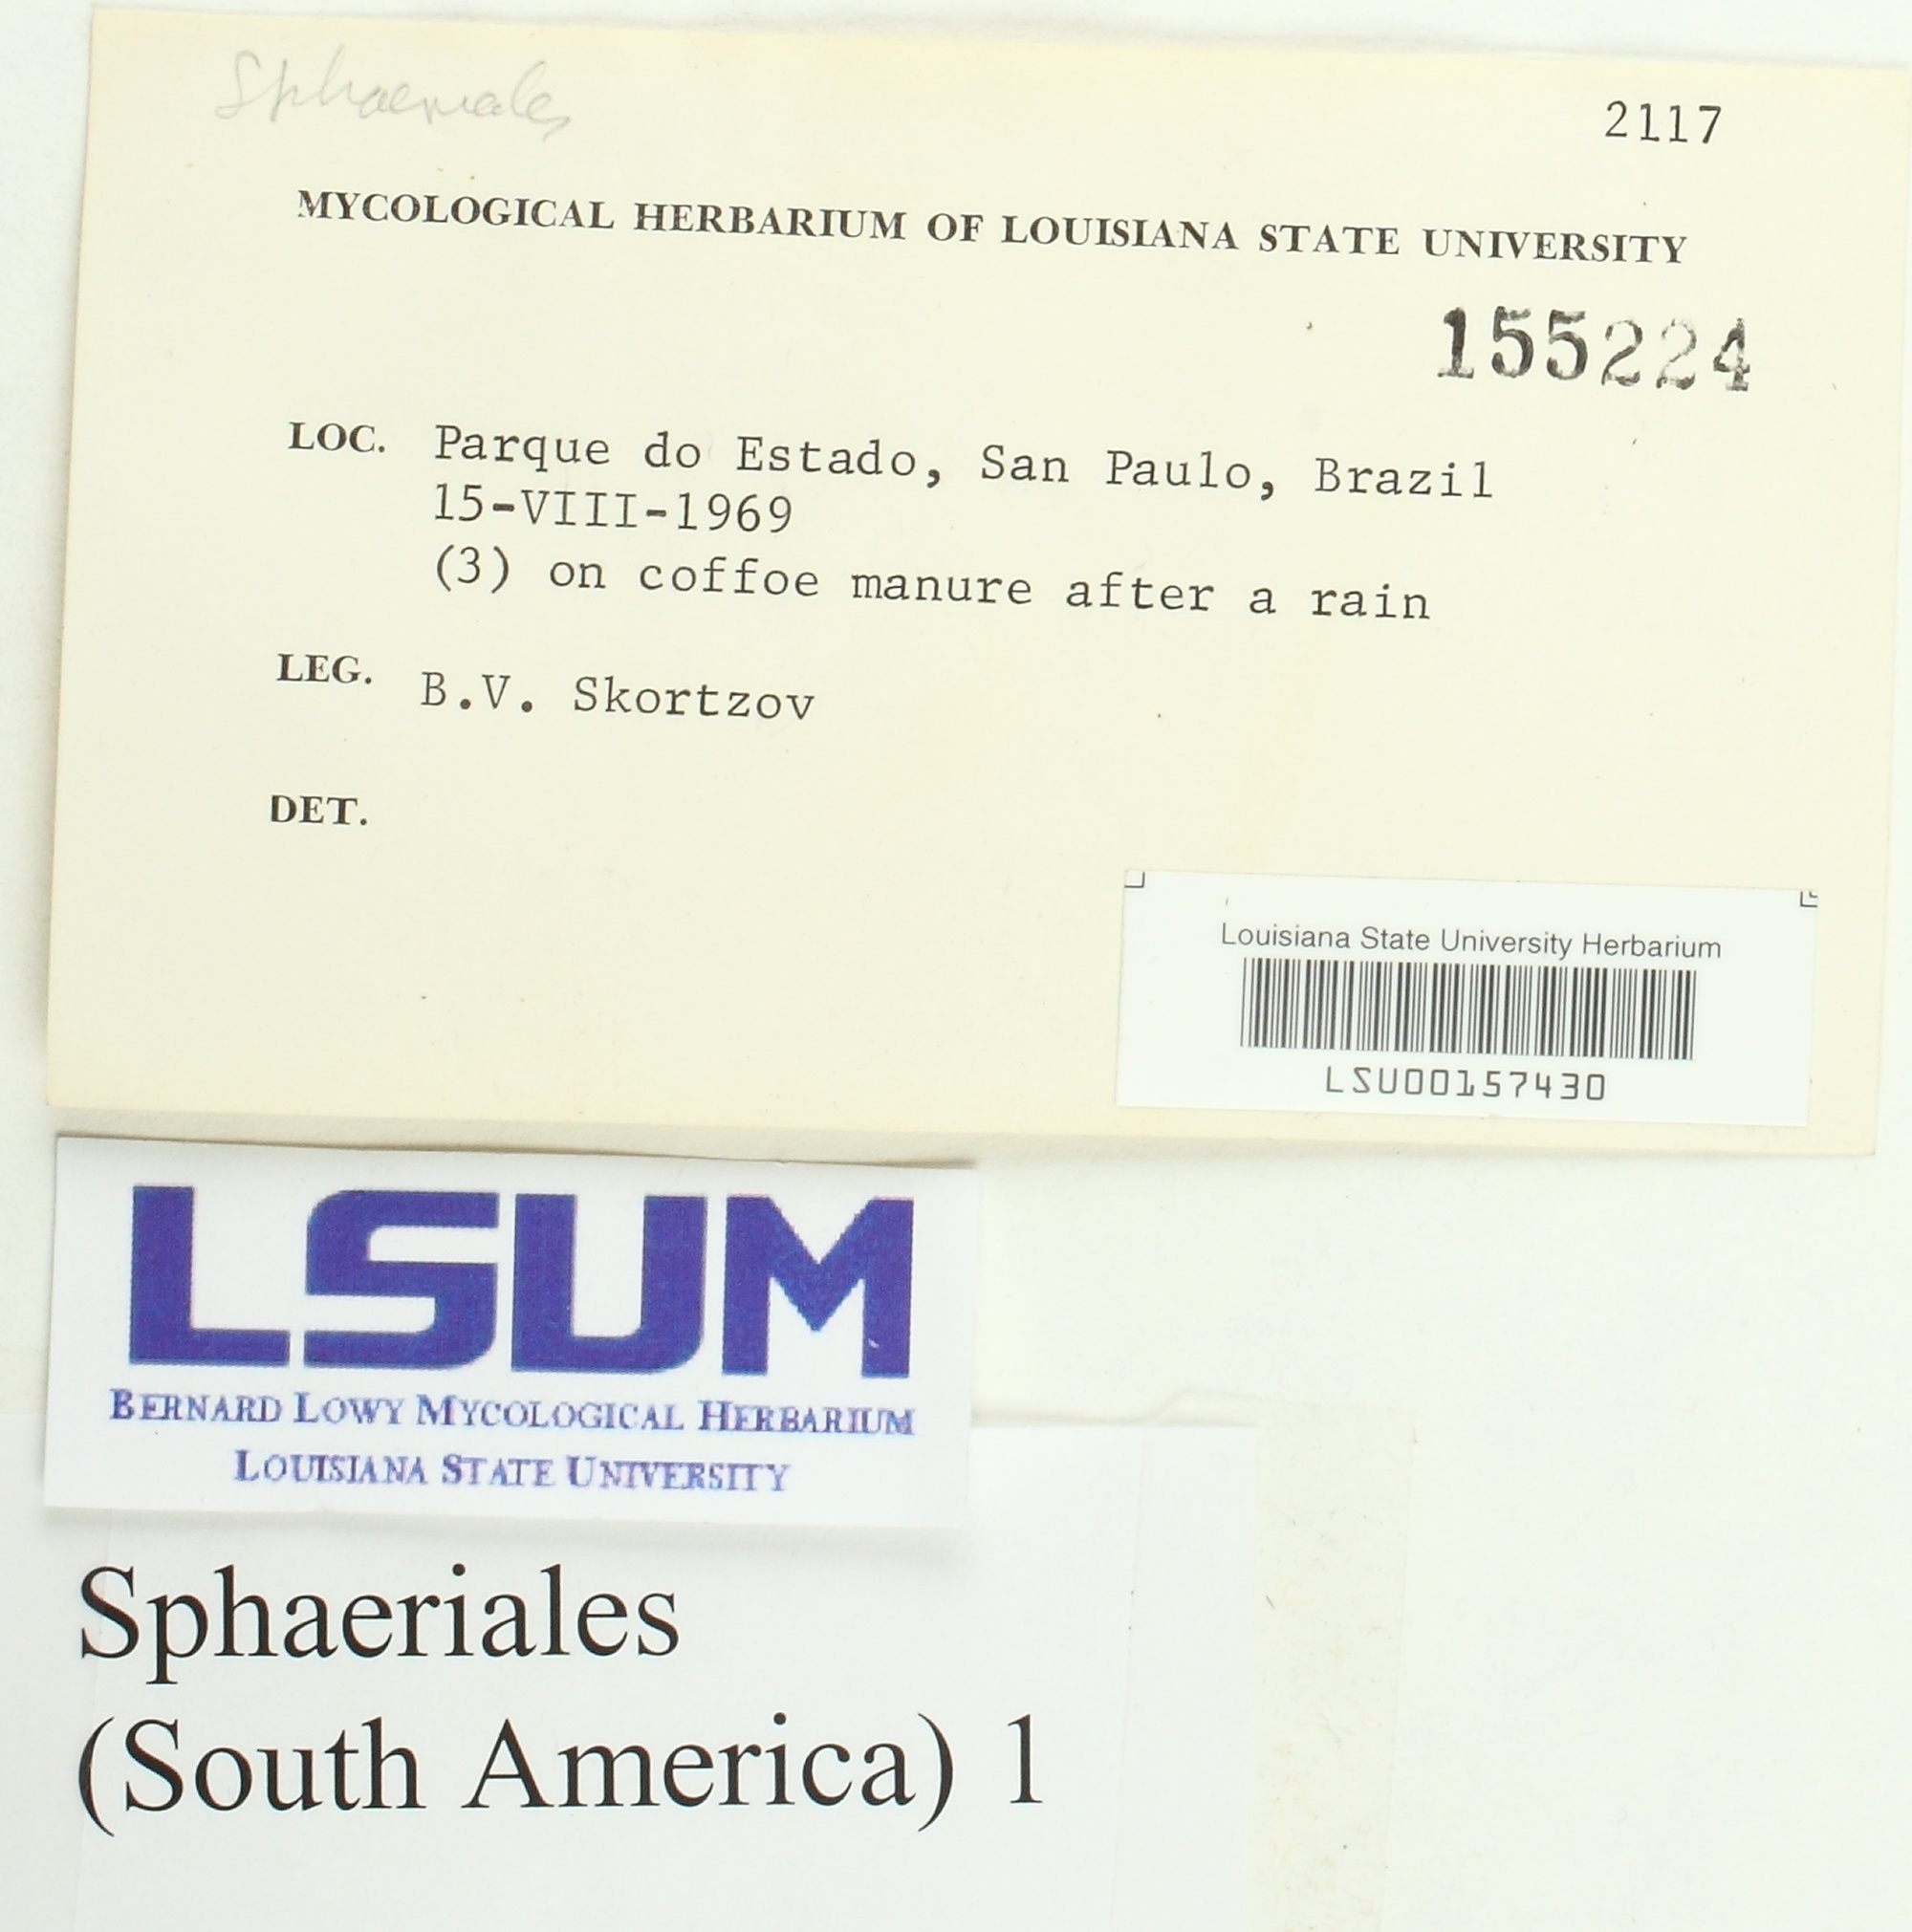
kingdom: Fungi
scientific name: Fungi
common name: Fungi
